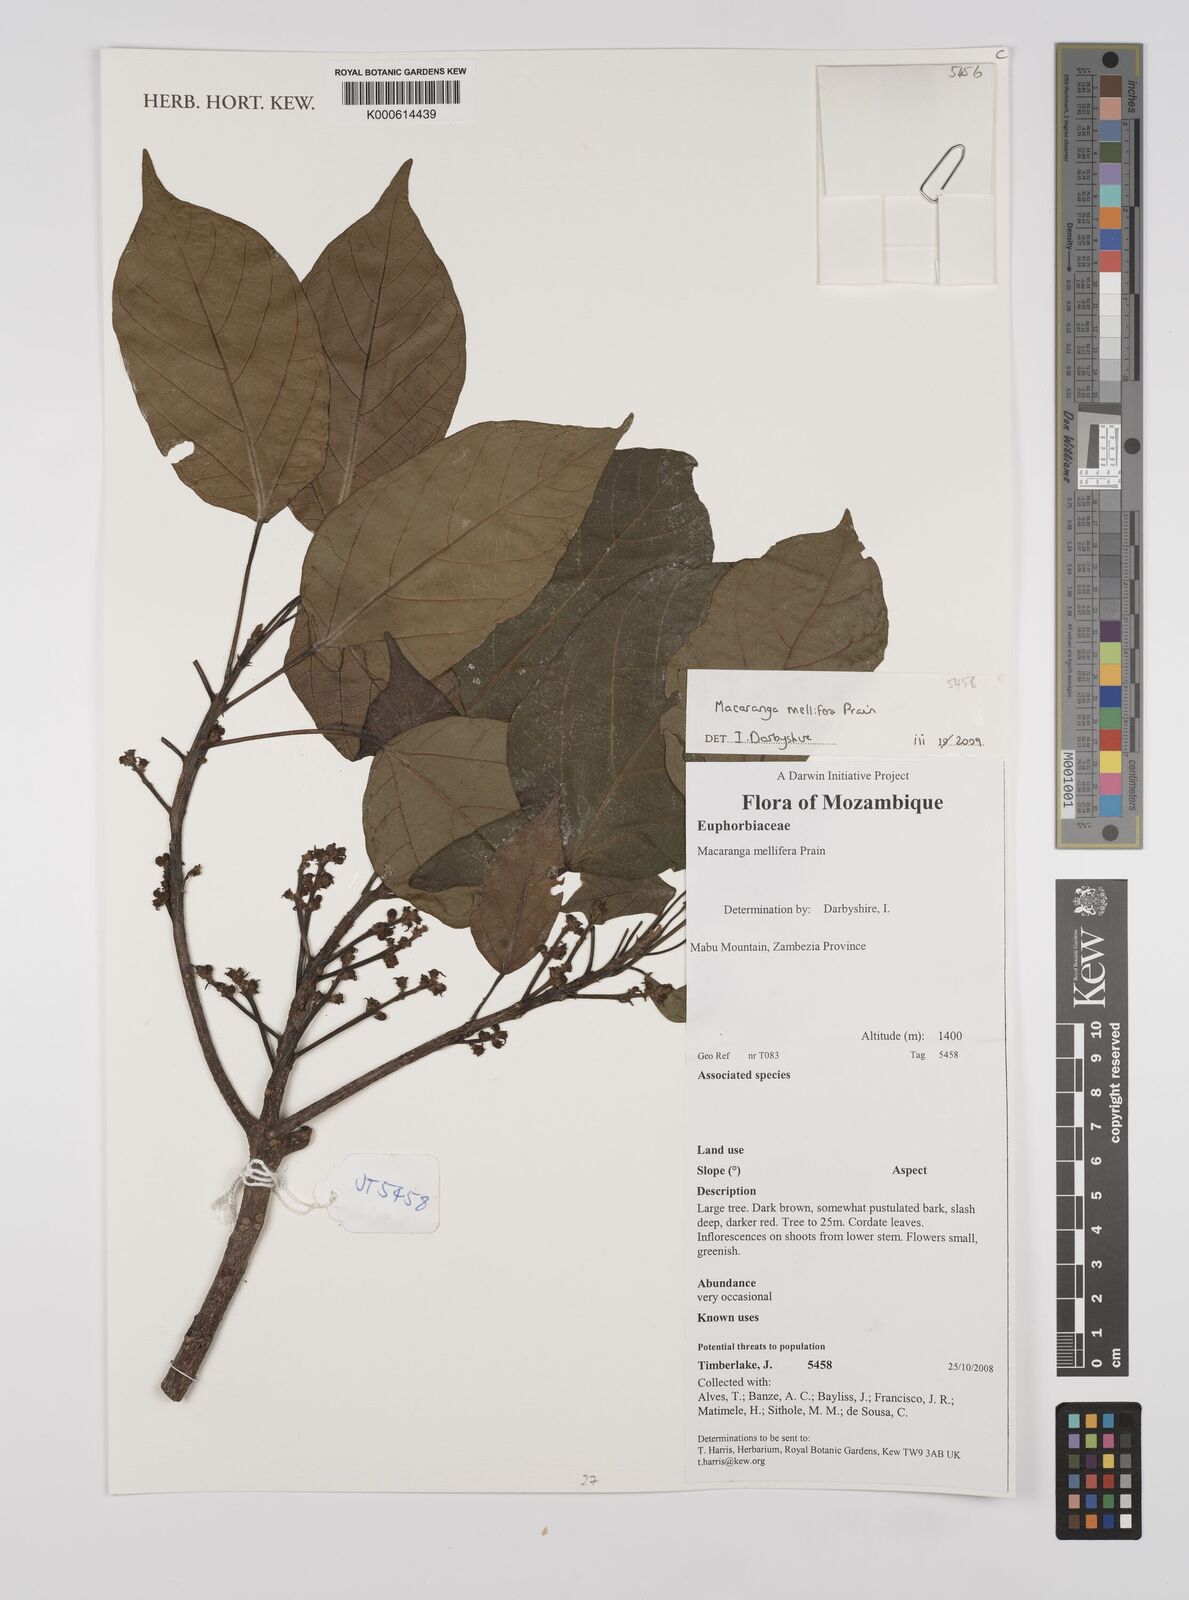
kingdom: Plantae
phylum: Tracheophyta
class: Magnoliopsida
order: Malpighiales
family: Euphorbiaceae
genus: Macaranga
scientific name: Macaranga mellifera
